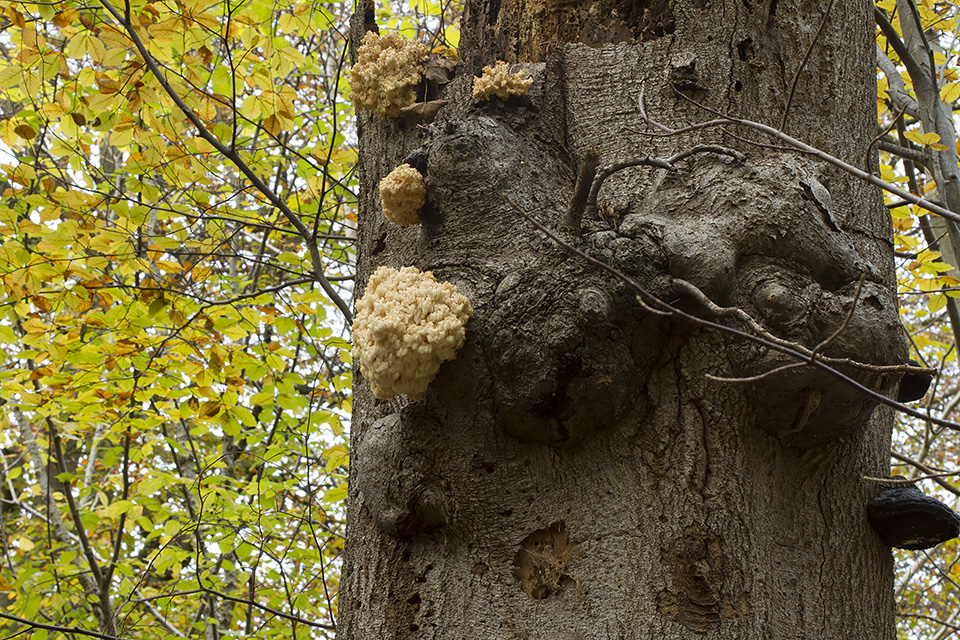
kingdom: Fungi
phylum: Basidiomycota
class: Agaricomycetes
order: Russulales
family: Hericiaceae
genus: Hericium
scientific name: Hericium coralloides
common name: koralpigsvamp
